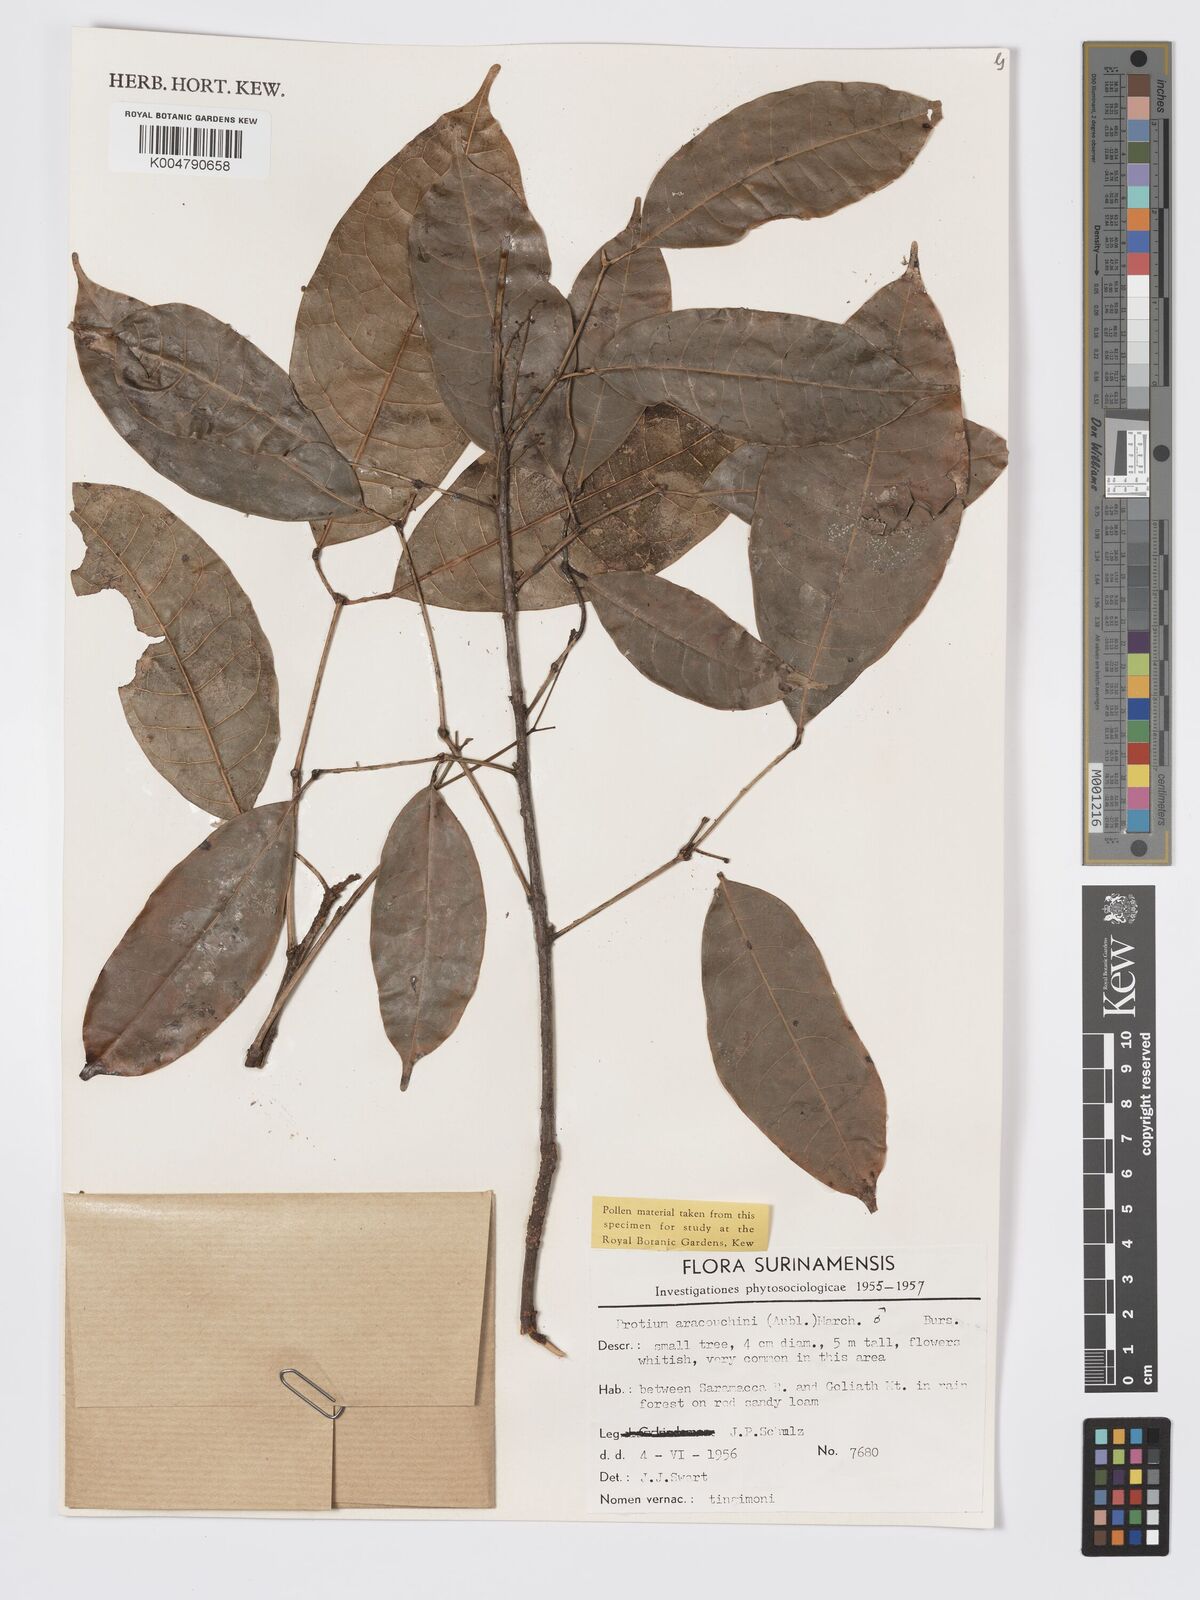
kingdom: Plantae
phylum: Tracheophyta
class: Magnoliopsida
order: Sapindales
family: Burseraceae
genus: Protium
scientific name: Protium aracouchini
